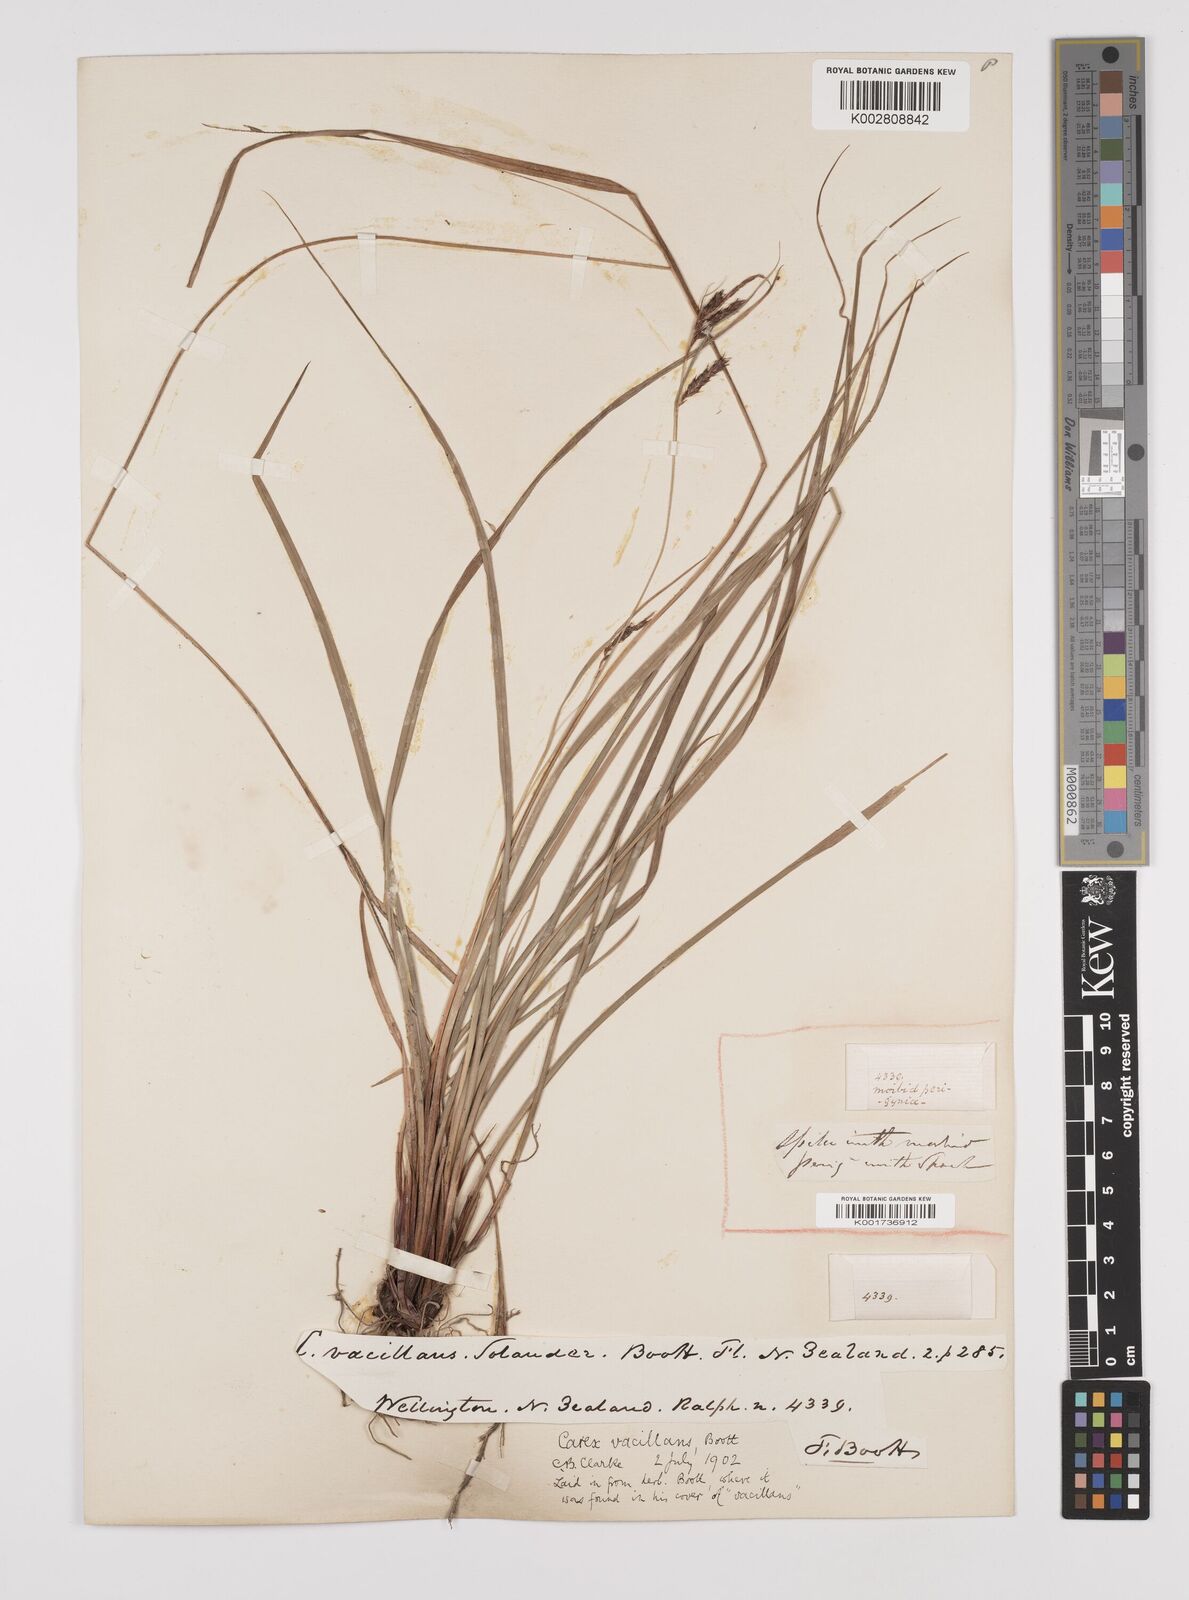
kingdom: Plantae
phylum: Tracheophyta
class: Liliopsida
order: Poales
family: Cyperaceae
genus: Carex
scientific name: Carex spinirostris
